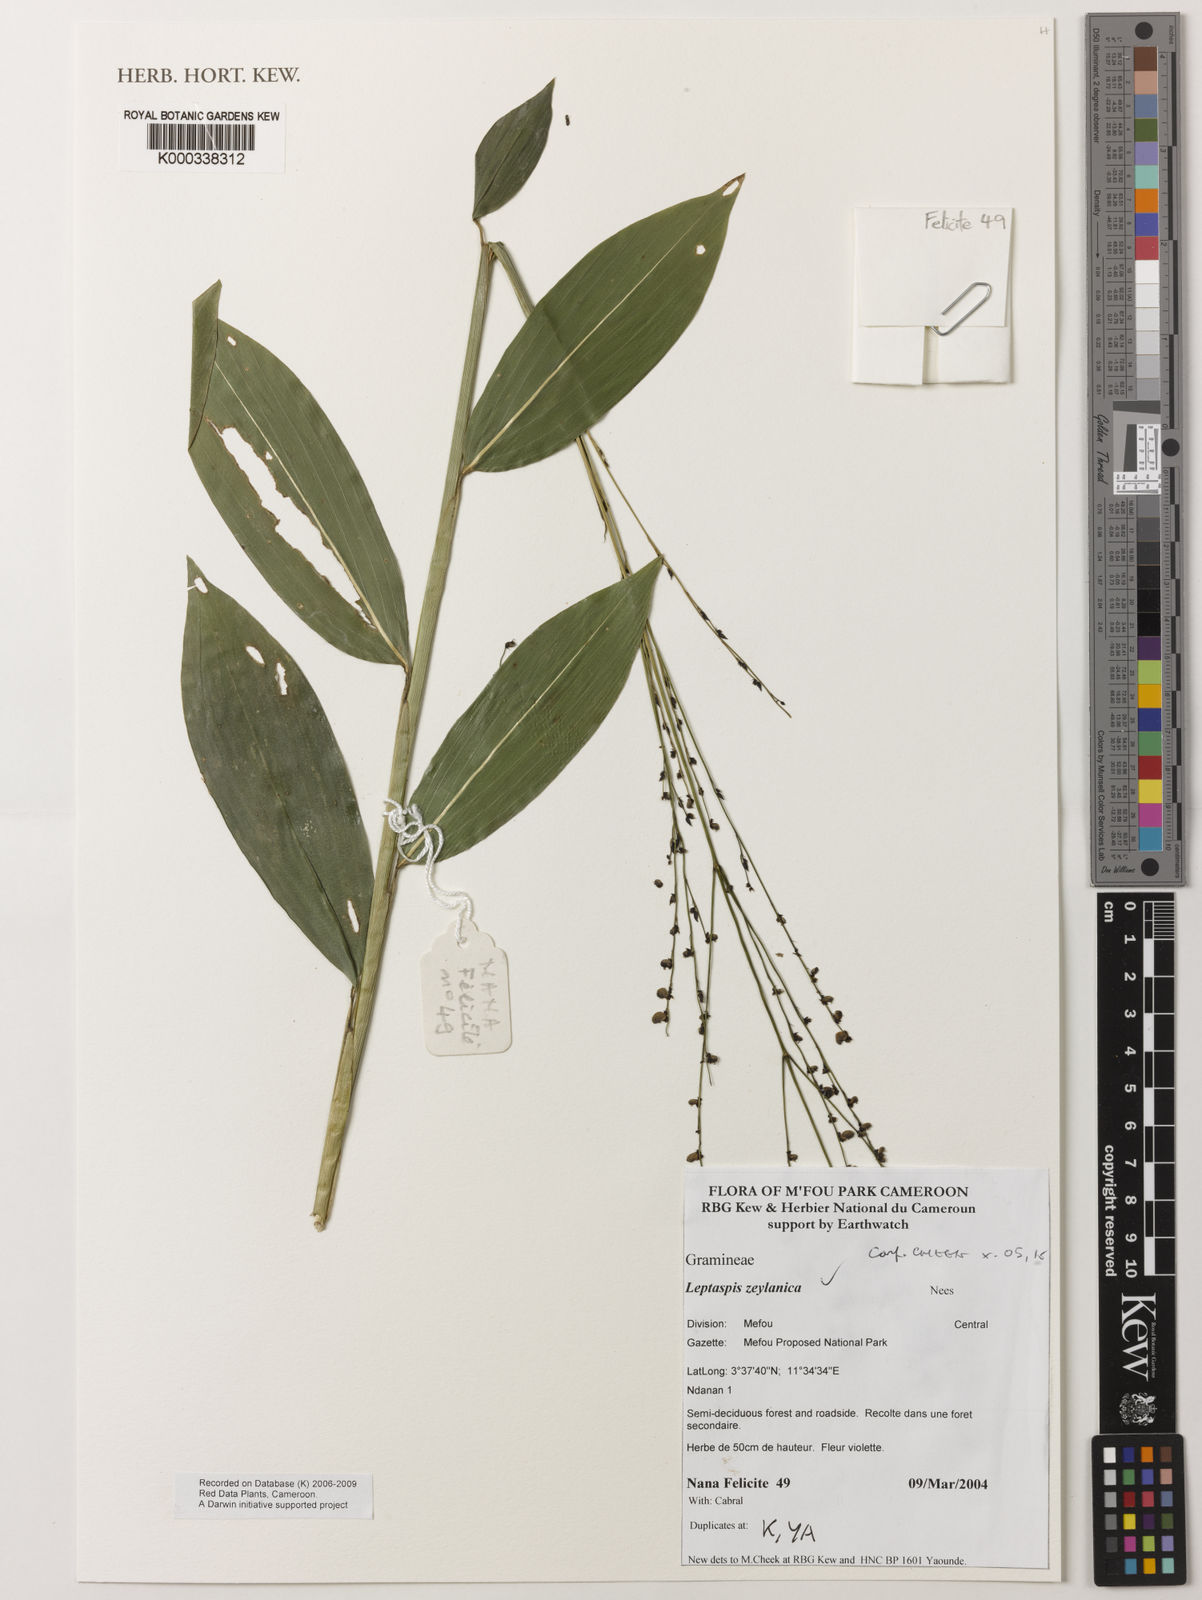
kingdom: Plantae
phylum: Tracheophyta
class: Liliopsida
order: Poales
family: Poaceae
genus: Leptaspis
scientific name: Leptaspis zeylanica
